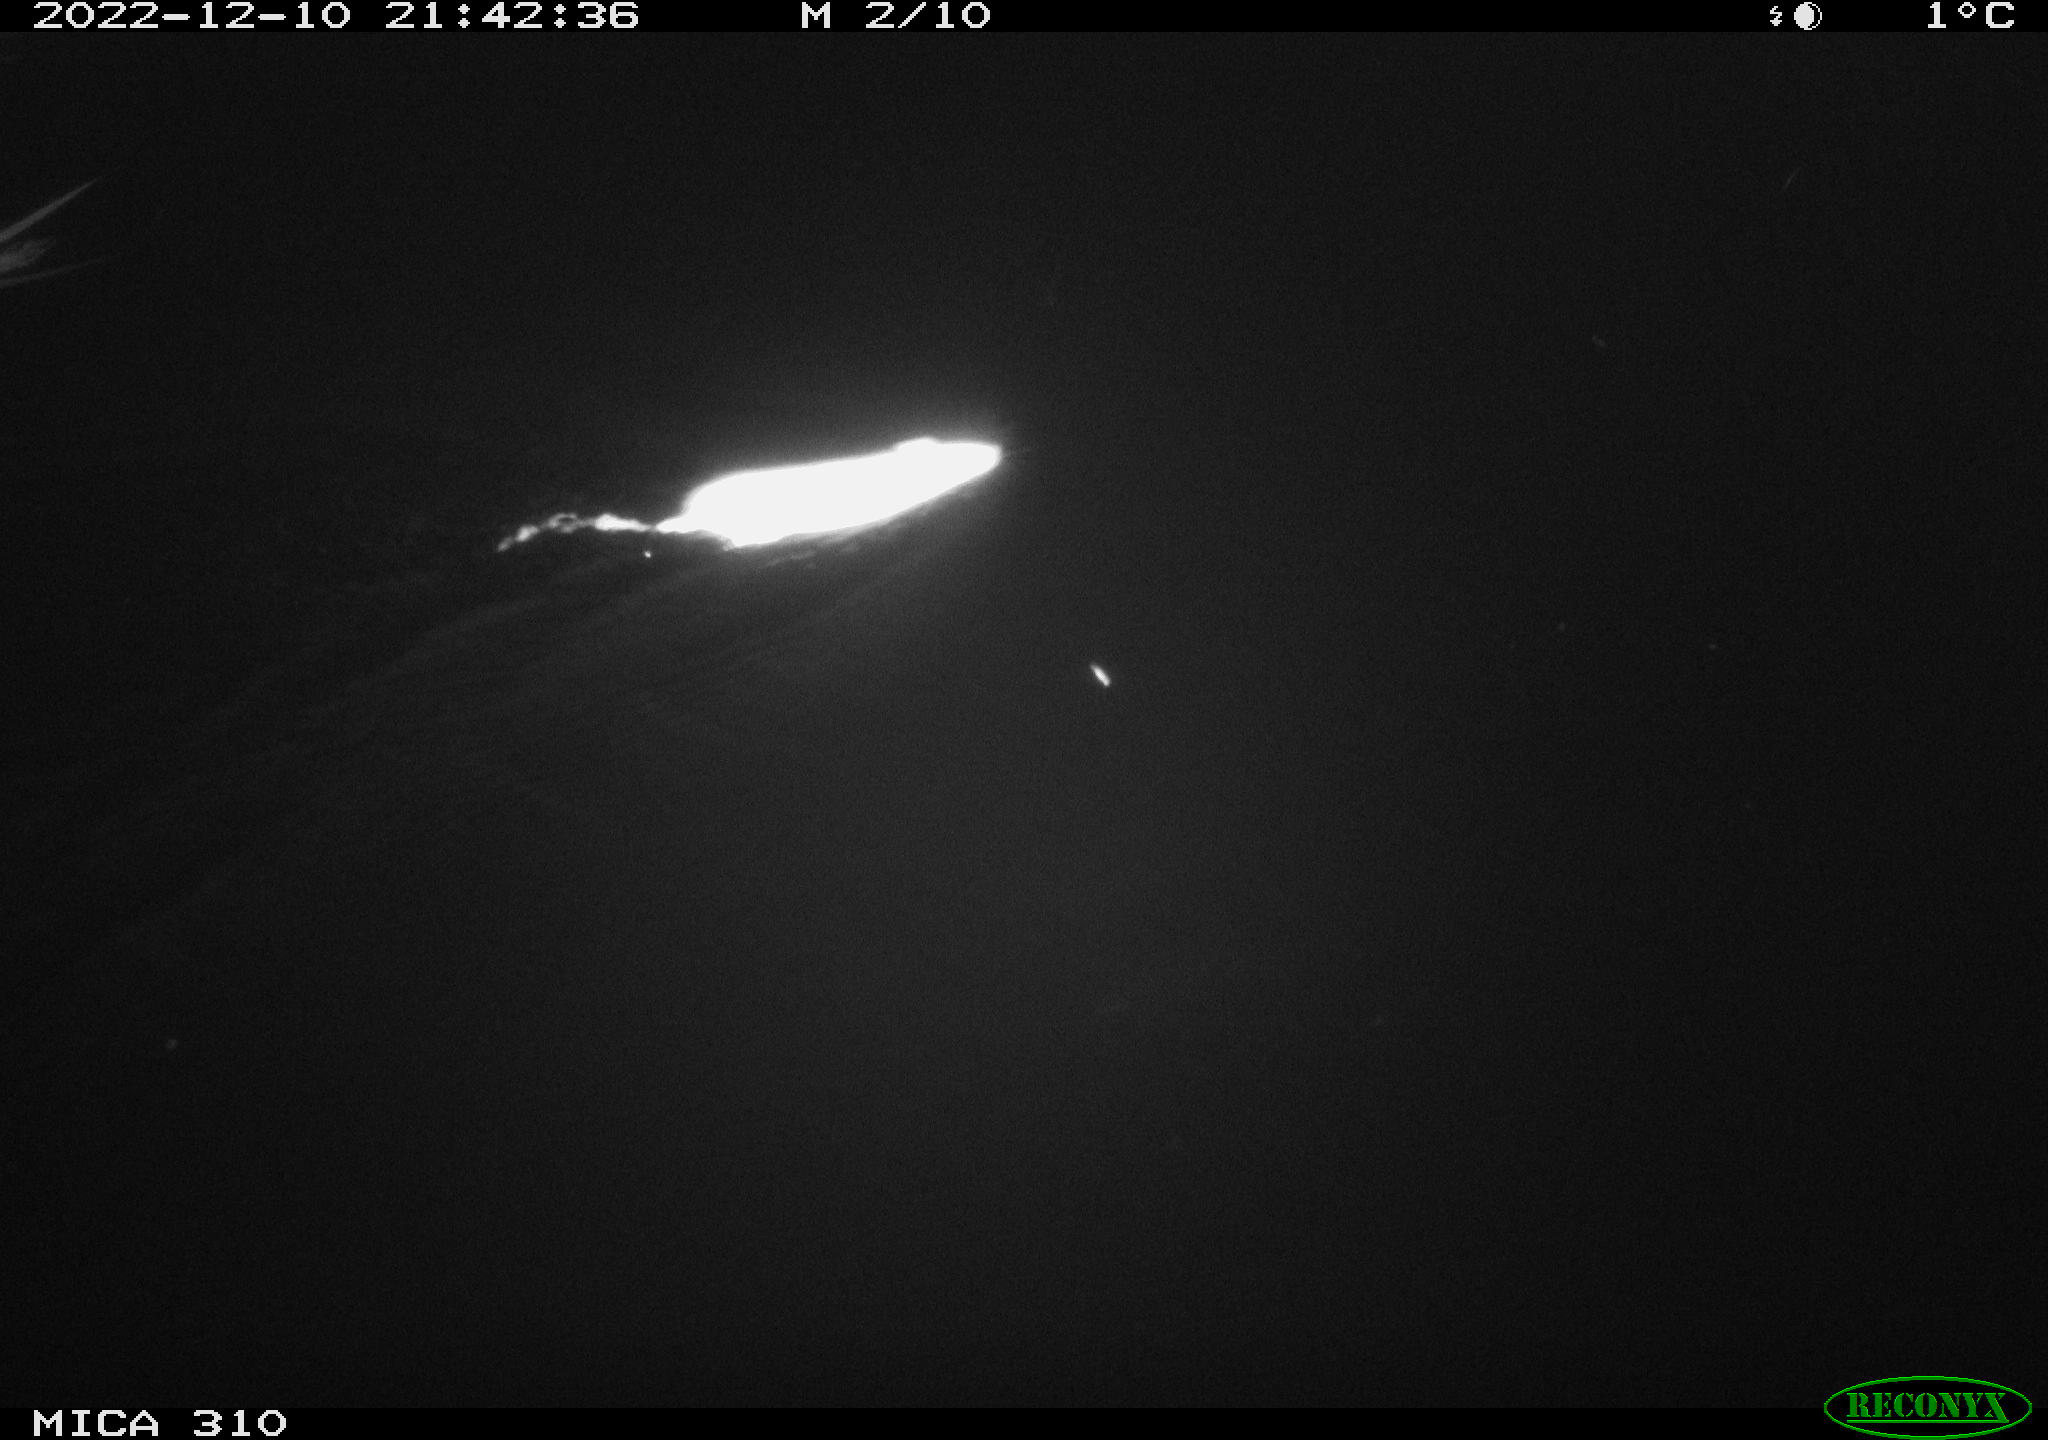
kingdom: Animalia
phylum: Chordata
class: Mammalia
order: Rodentia
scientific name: Rodentia
